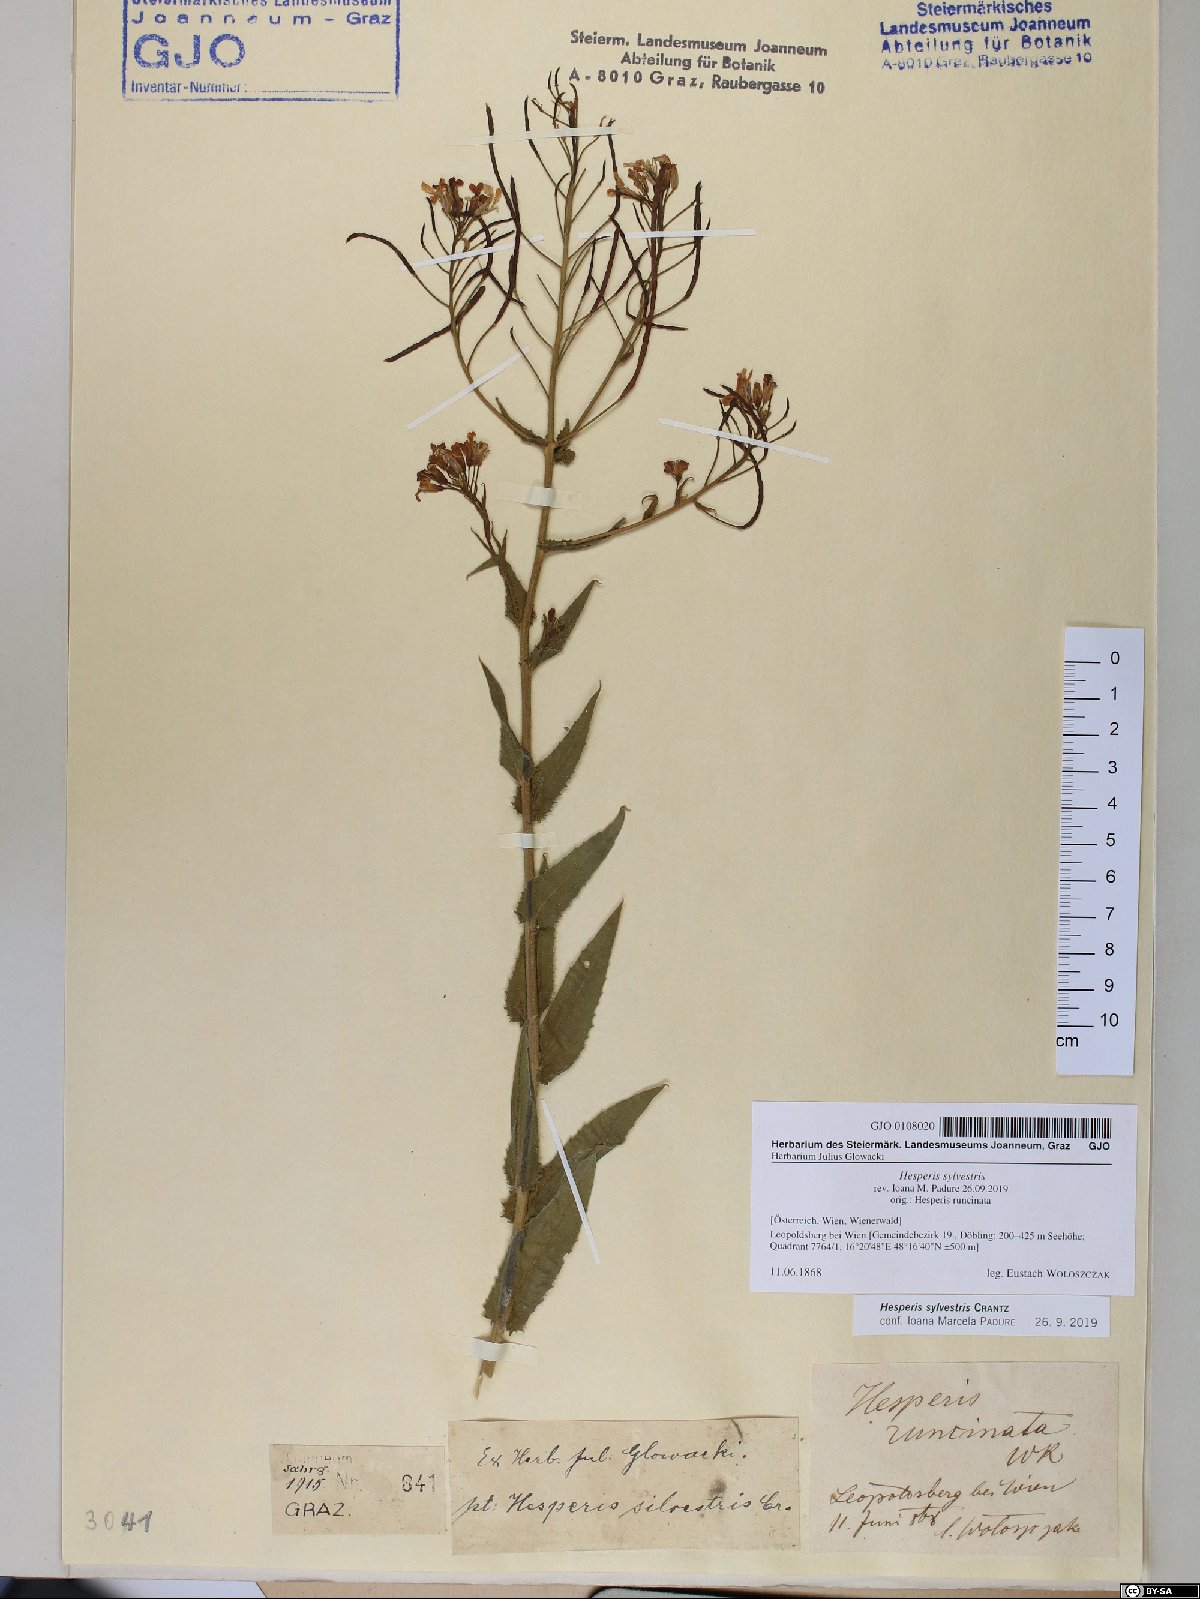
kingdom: Plantae
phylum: Tracheophyta
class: Magnoliopsida
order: Brassicales
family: Brassicaceae
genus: Hesperis
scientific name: Hesperis sylvestris
